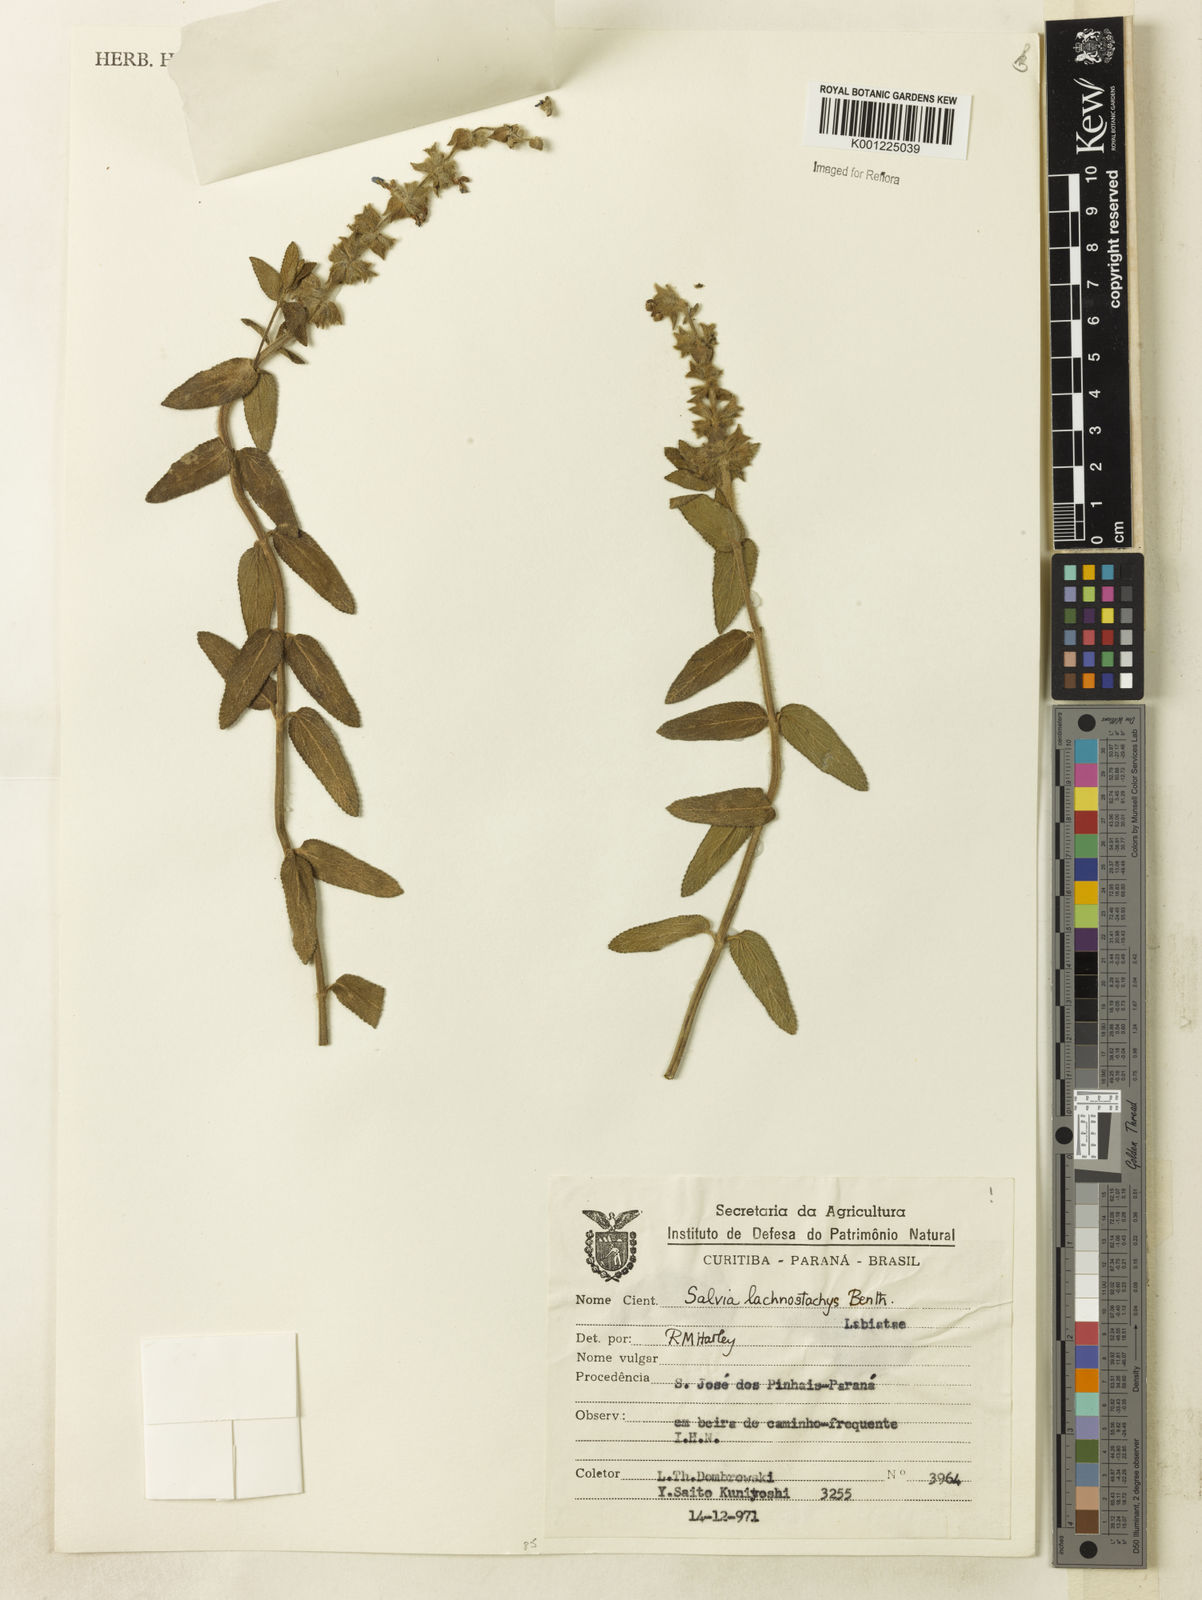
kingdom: Plantae
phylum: Tracheophyta
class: Magnoliopsida
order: Lamiales
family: Lamiaceae
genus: Salvia
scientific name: Salvia lachnostachys
